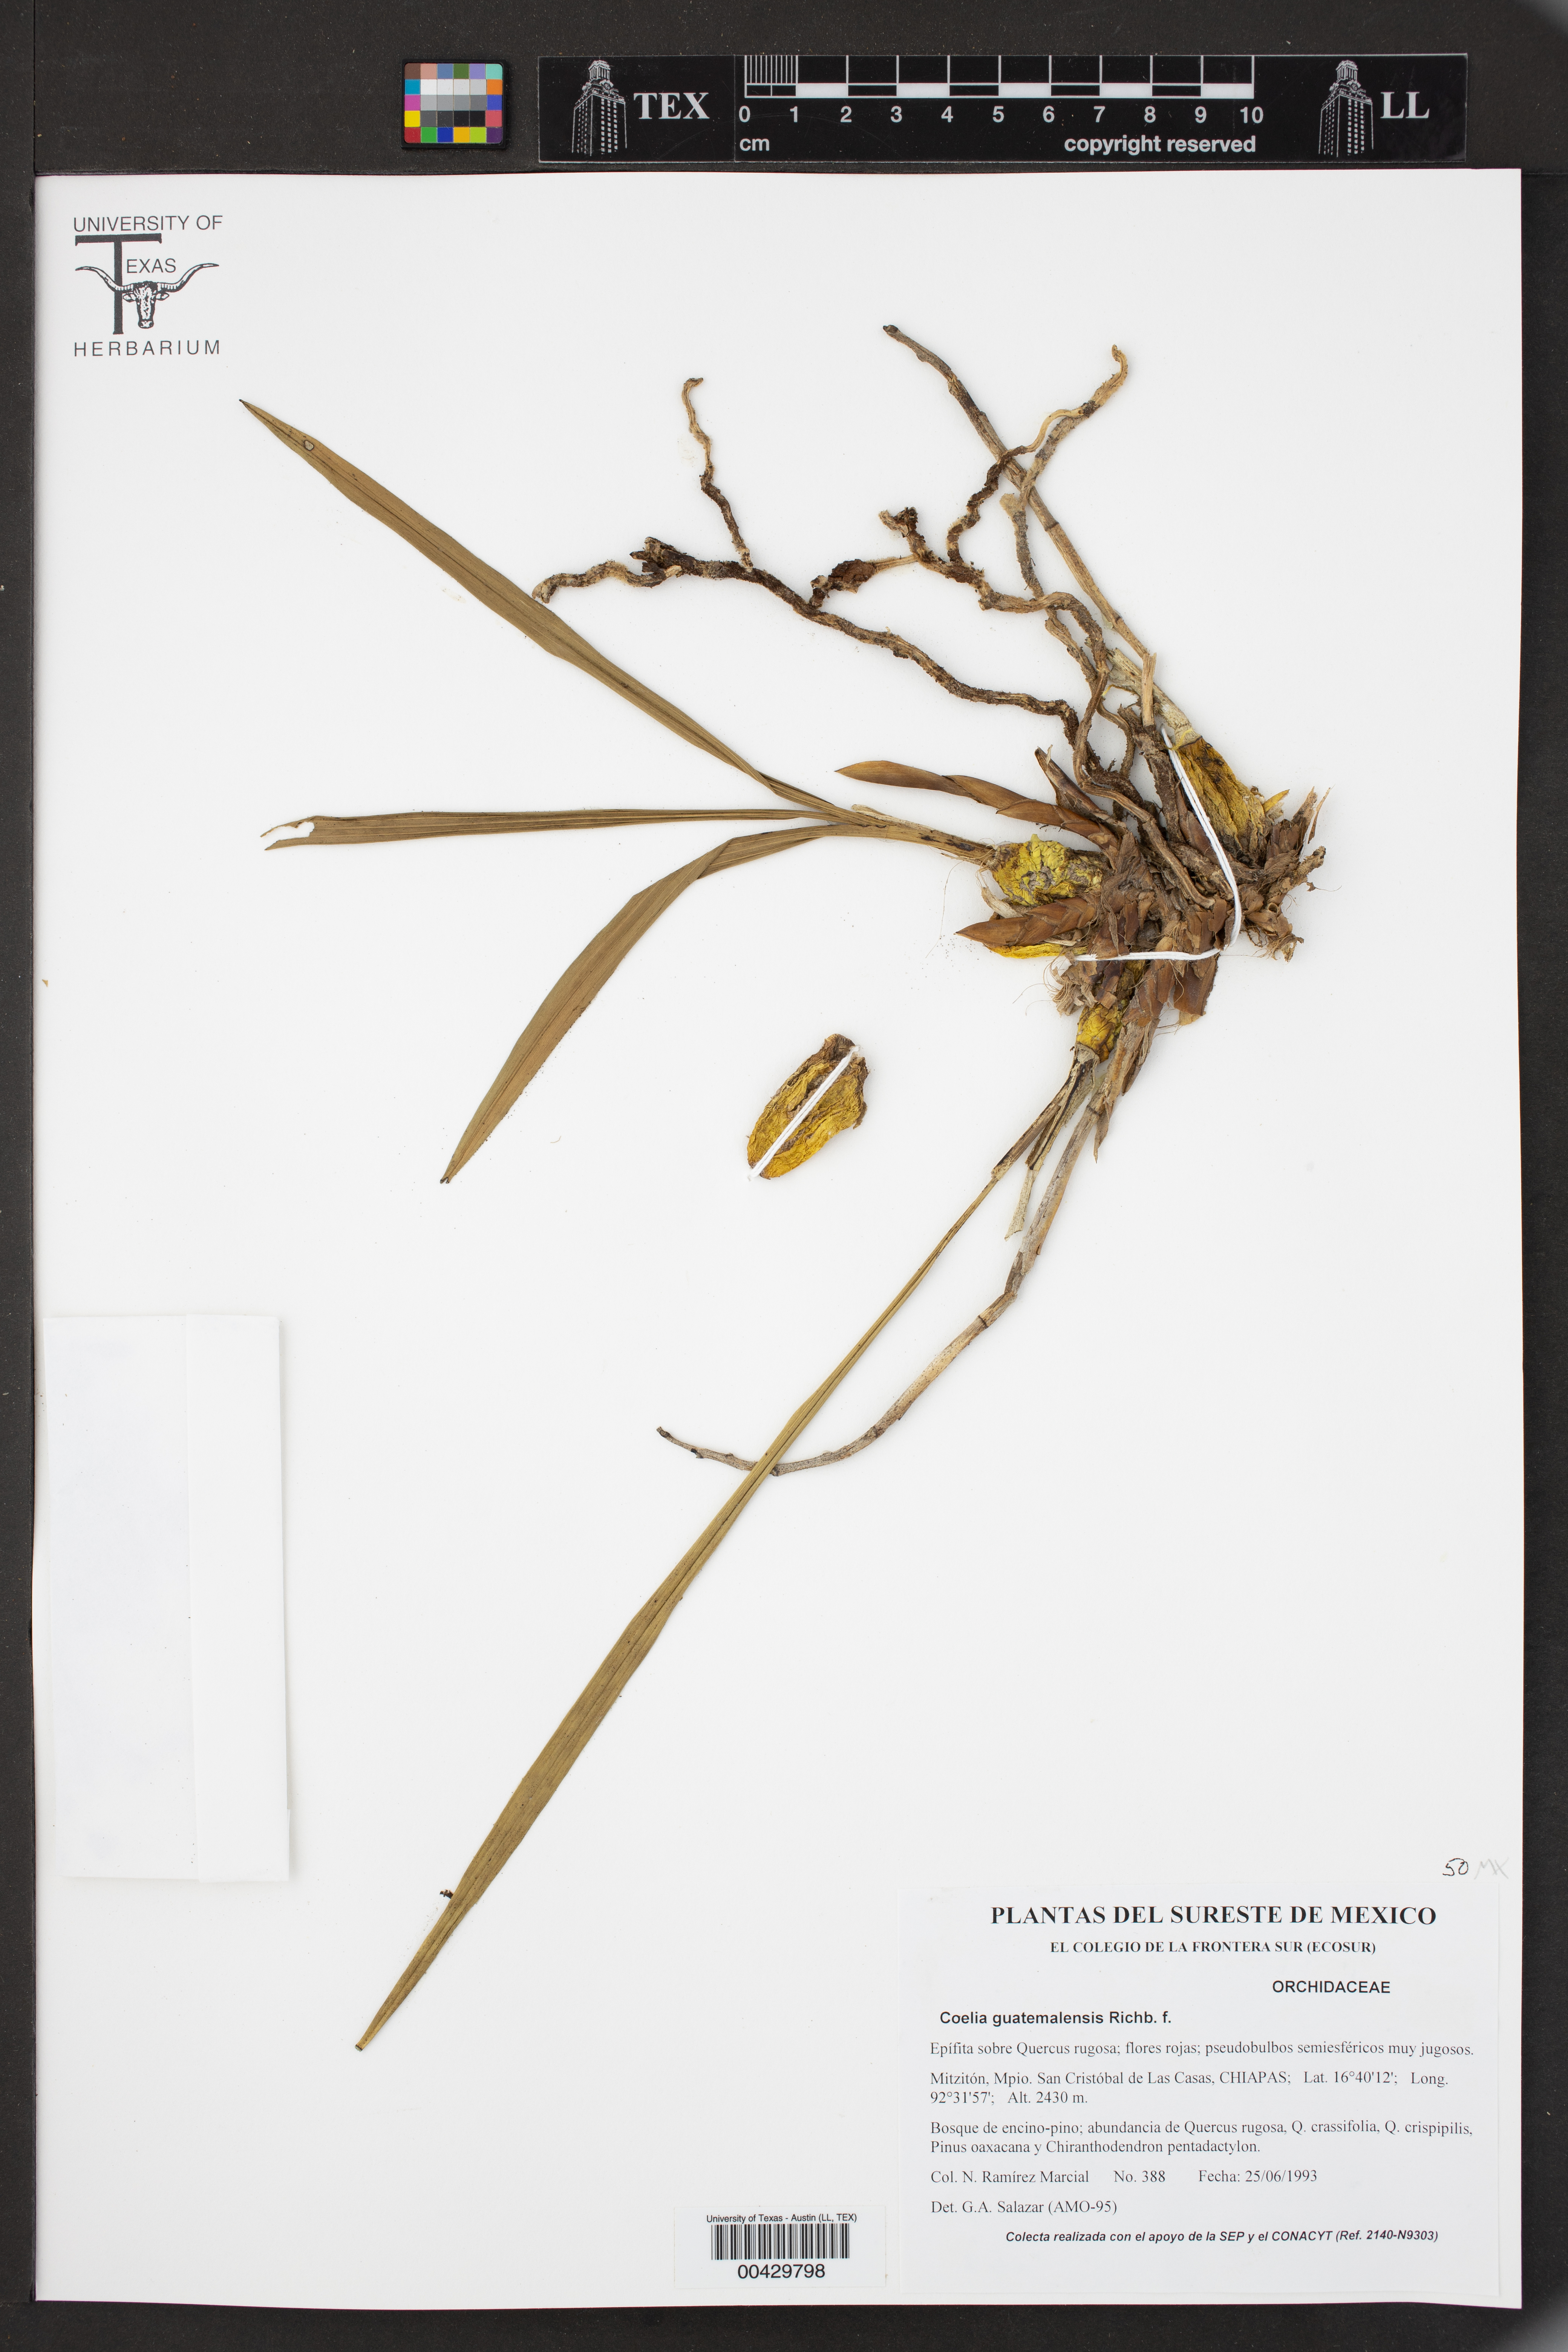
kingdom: Plantae
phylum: Tracheophyta
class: Liliopsida
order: Asparagales
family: Orchidaceae
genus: Coelia
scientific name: Coelia guatemalensis
